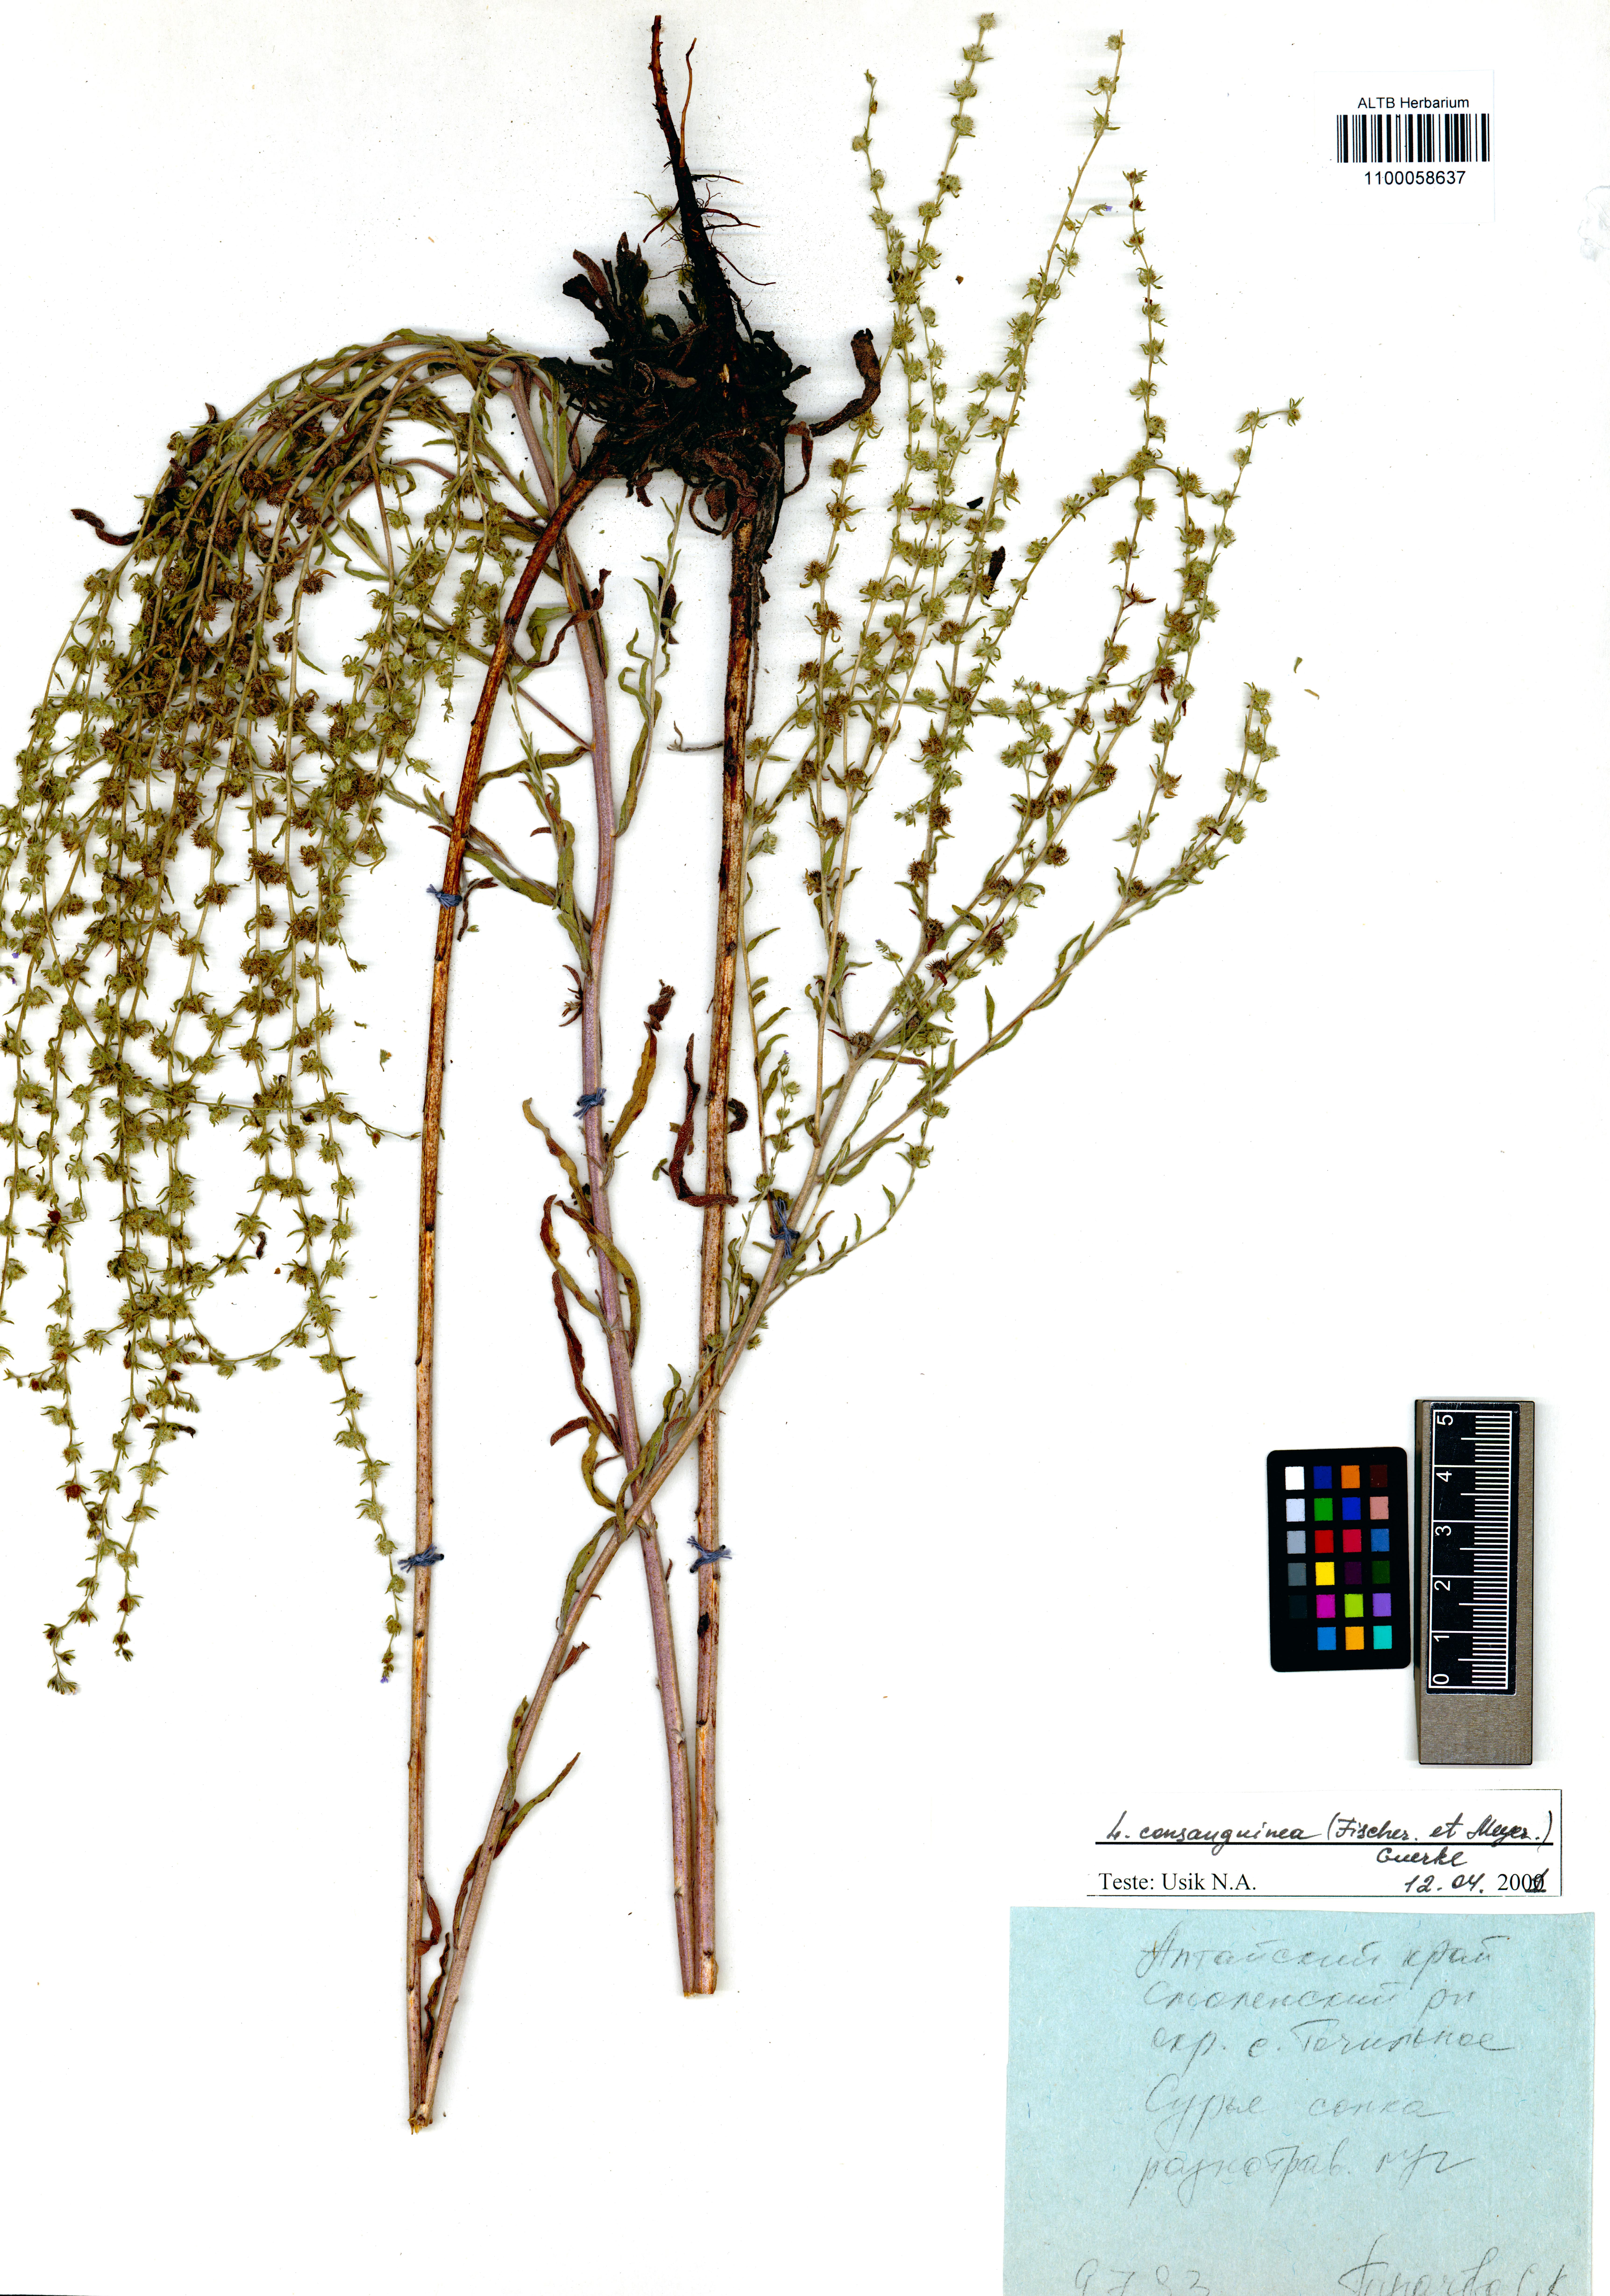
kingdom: Plantae
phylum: Tracheophyta
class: Magnoliopsida
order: Boraginales
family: Boraginaceae
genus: Lappula
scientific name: Lappula squarrosa
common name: European stickseed
